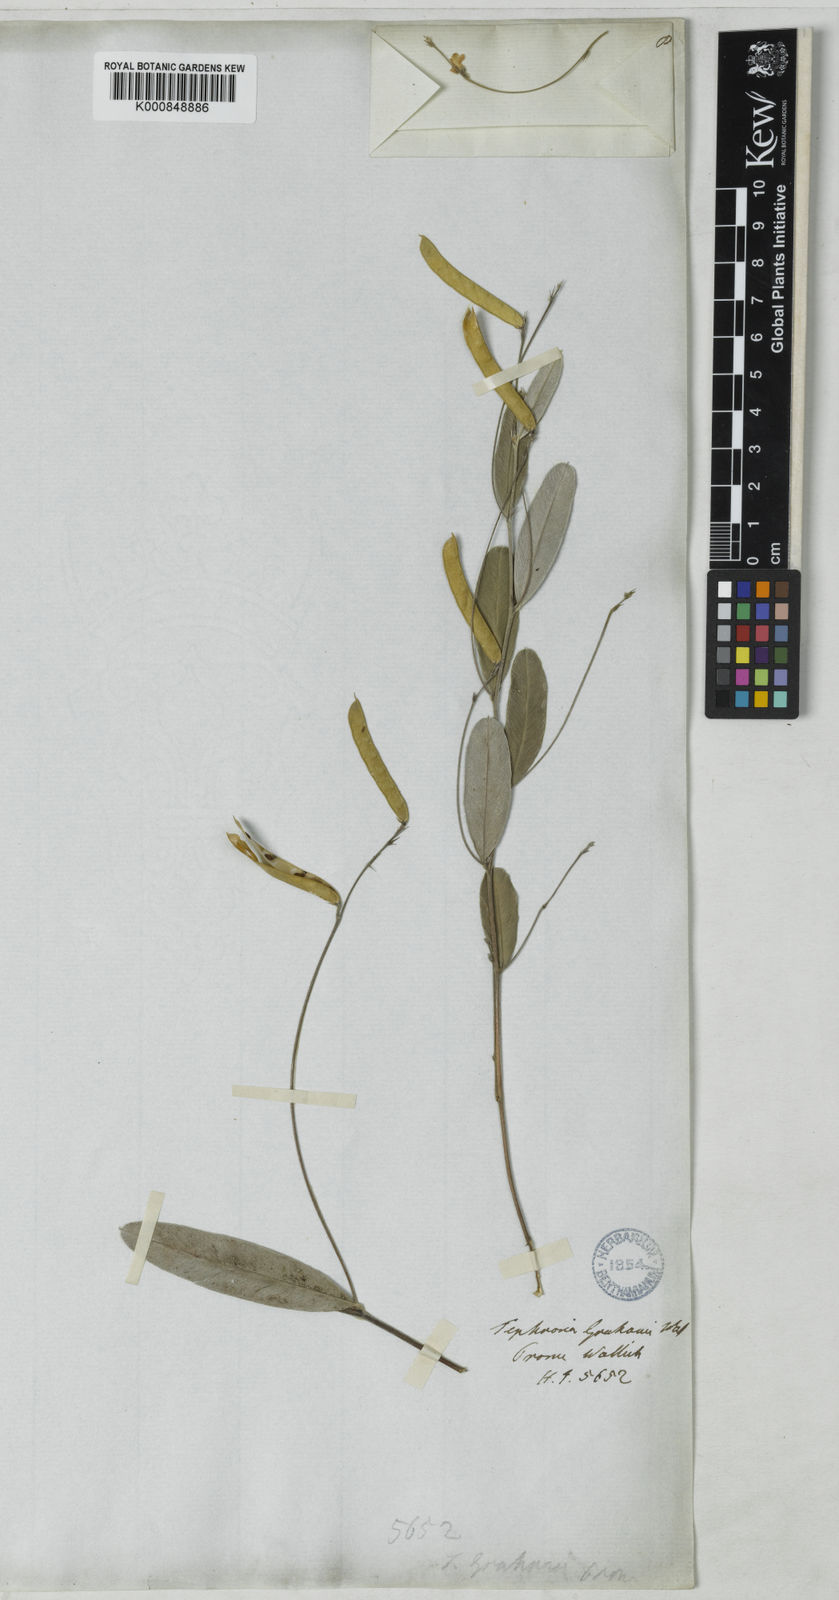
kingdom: Plantae
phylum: Tracheophyta
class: Magnoliopsida
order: Fabales
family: Fabaceae
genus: Tephrosia
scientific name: Tephrosia tinctoria
